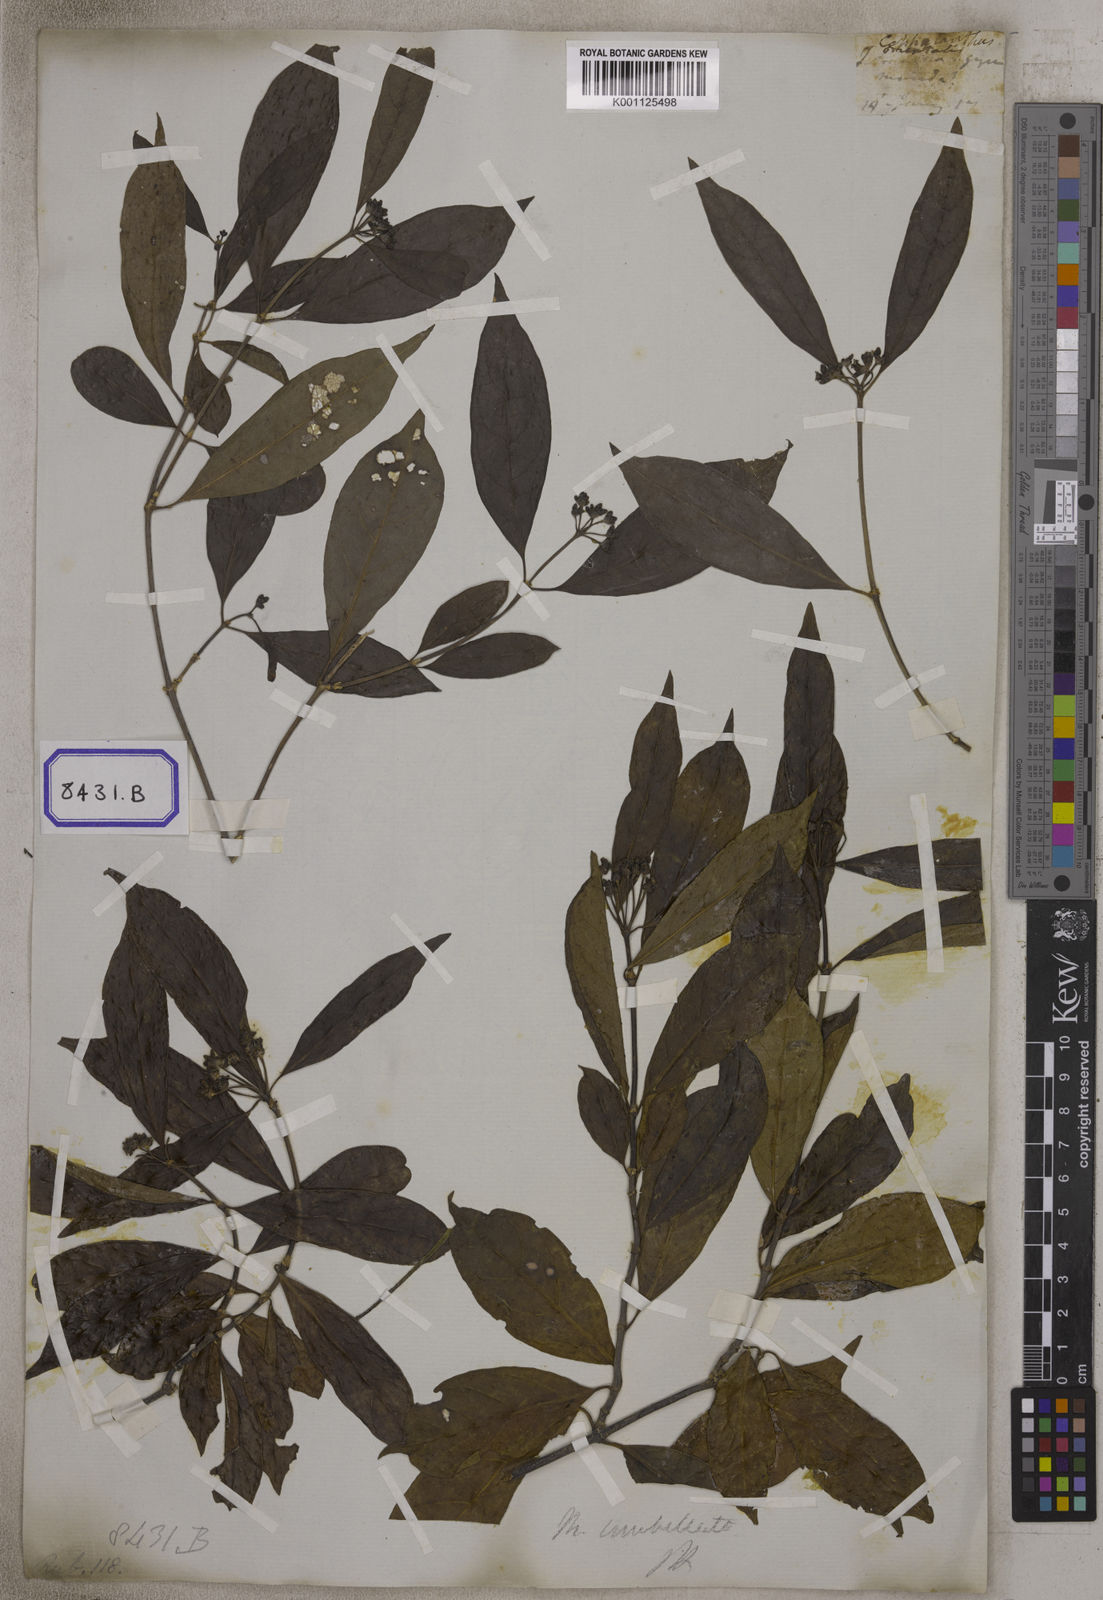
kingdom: Plantae
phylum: Tracheophyta
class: Magnoliopsida
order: Gentianales
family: Rubiaceae
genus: Gynochthodes
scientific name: Gynochthodes umbellata
